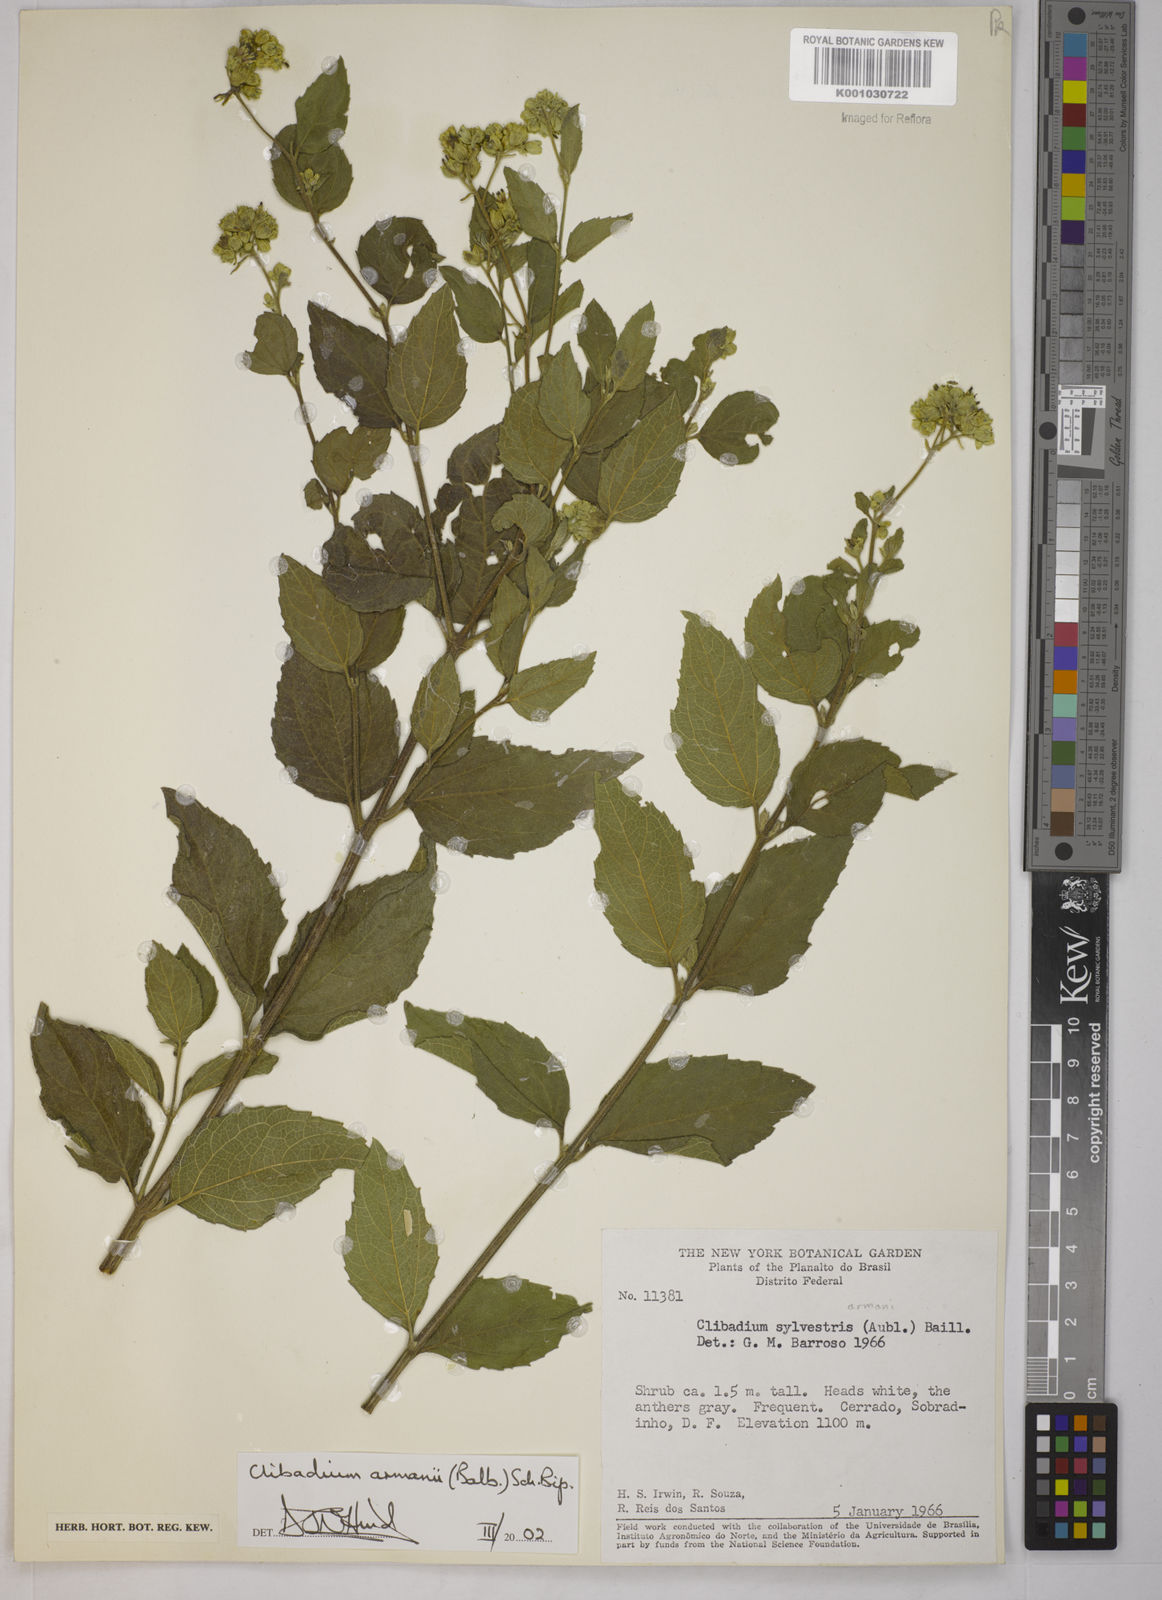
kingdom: Plantae
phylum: Tracheophyta
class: Magnoliopsida
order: Asterales
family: Asteraceae
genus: Clibadium
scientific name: Clibadium armanii
